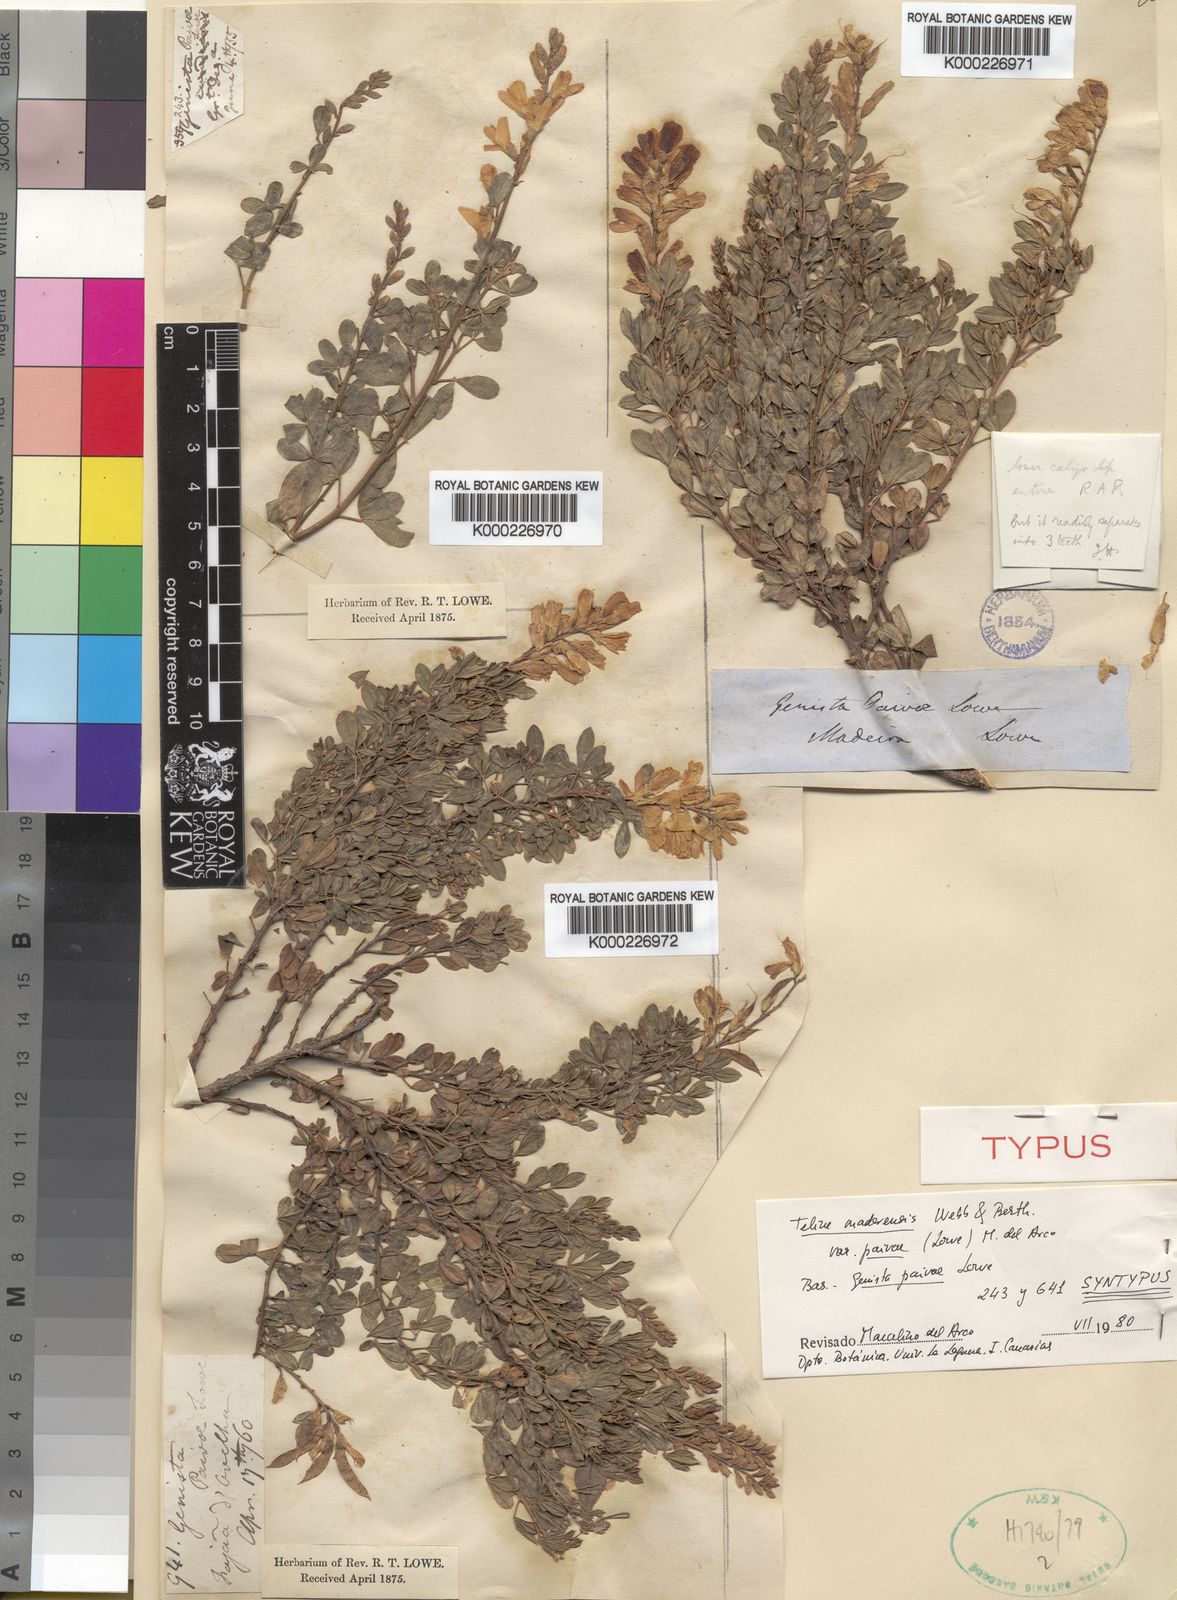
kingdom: Plantae
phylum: Tracheophyta
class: Magnoliopsida
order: Fabales
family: Fabaceae
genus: Genista
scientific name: Genista maderensis
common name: Madeira dyer's greenweed
